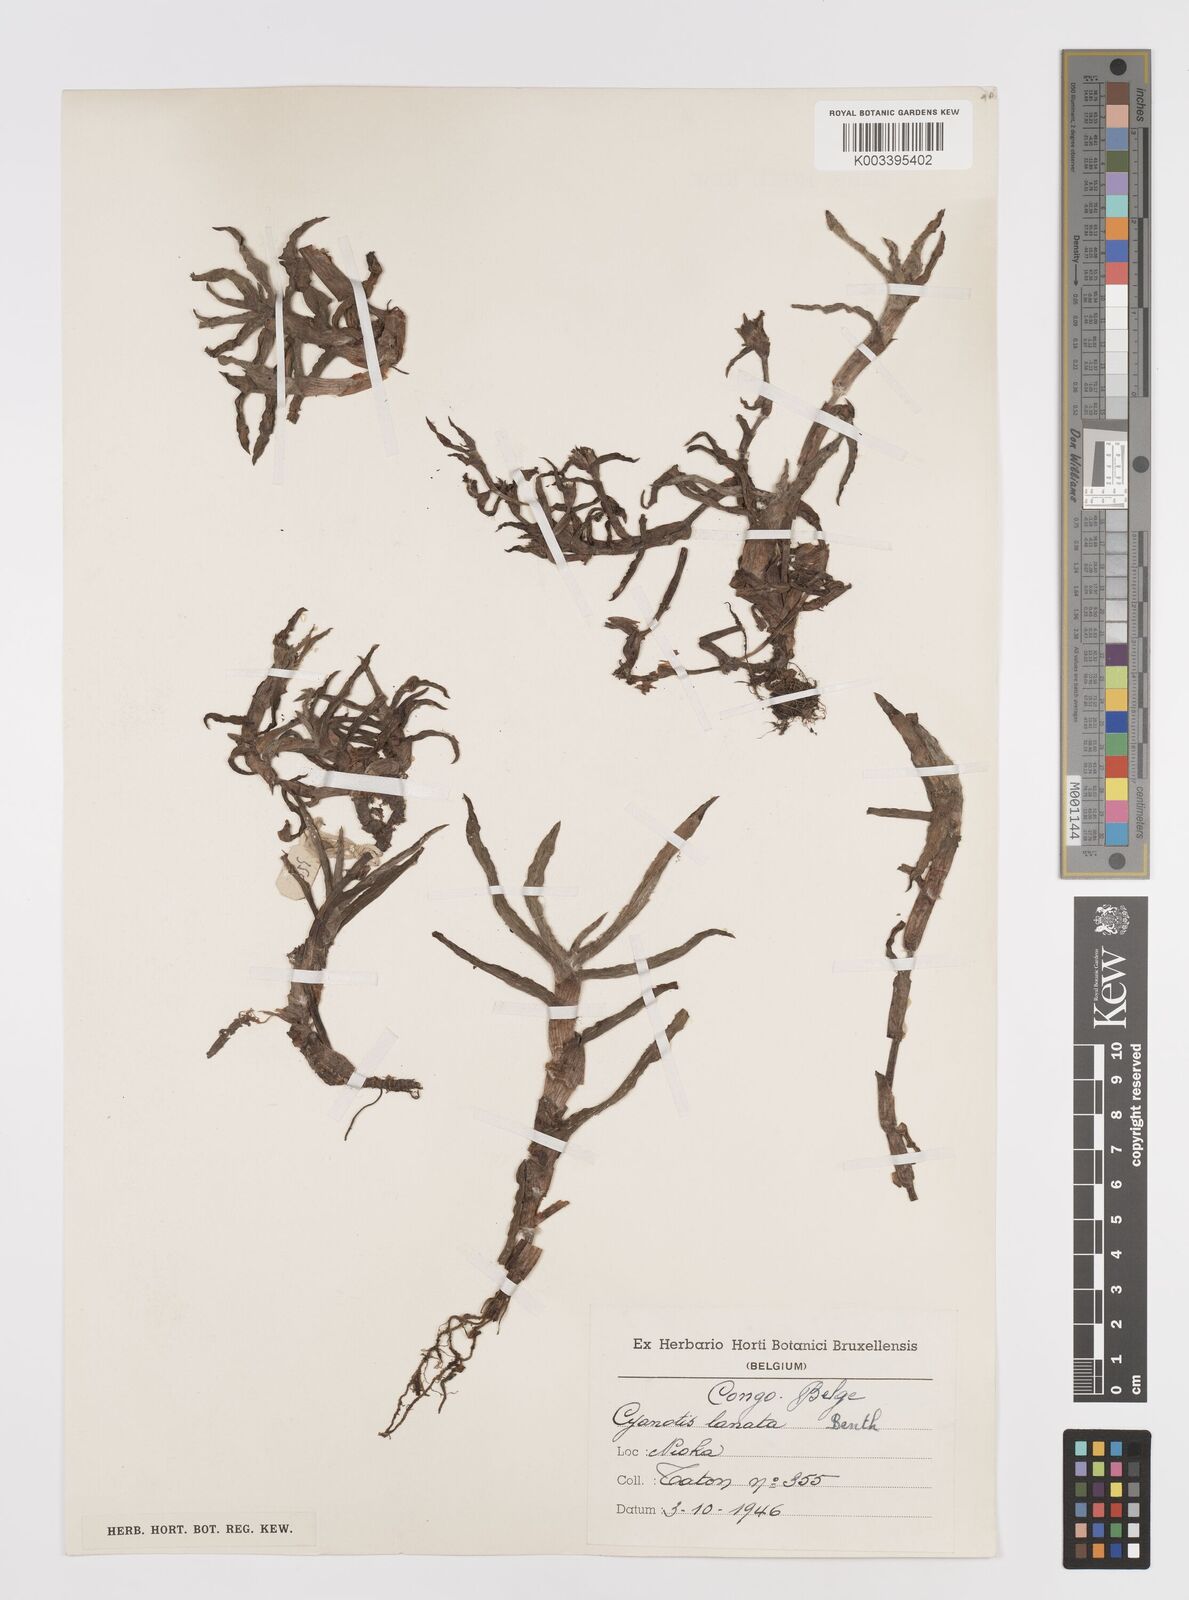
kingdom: Plantae
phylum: Tracheophyta
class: Liliopsida
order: Commelinales
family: Commelinaceae
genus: Cyanotis
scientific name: Cyanotis lanata
